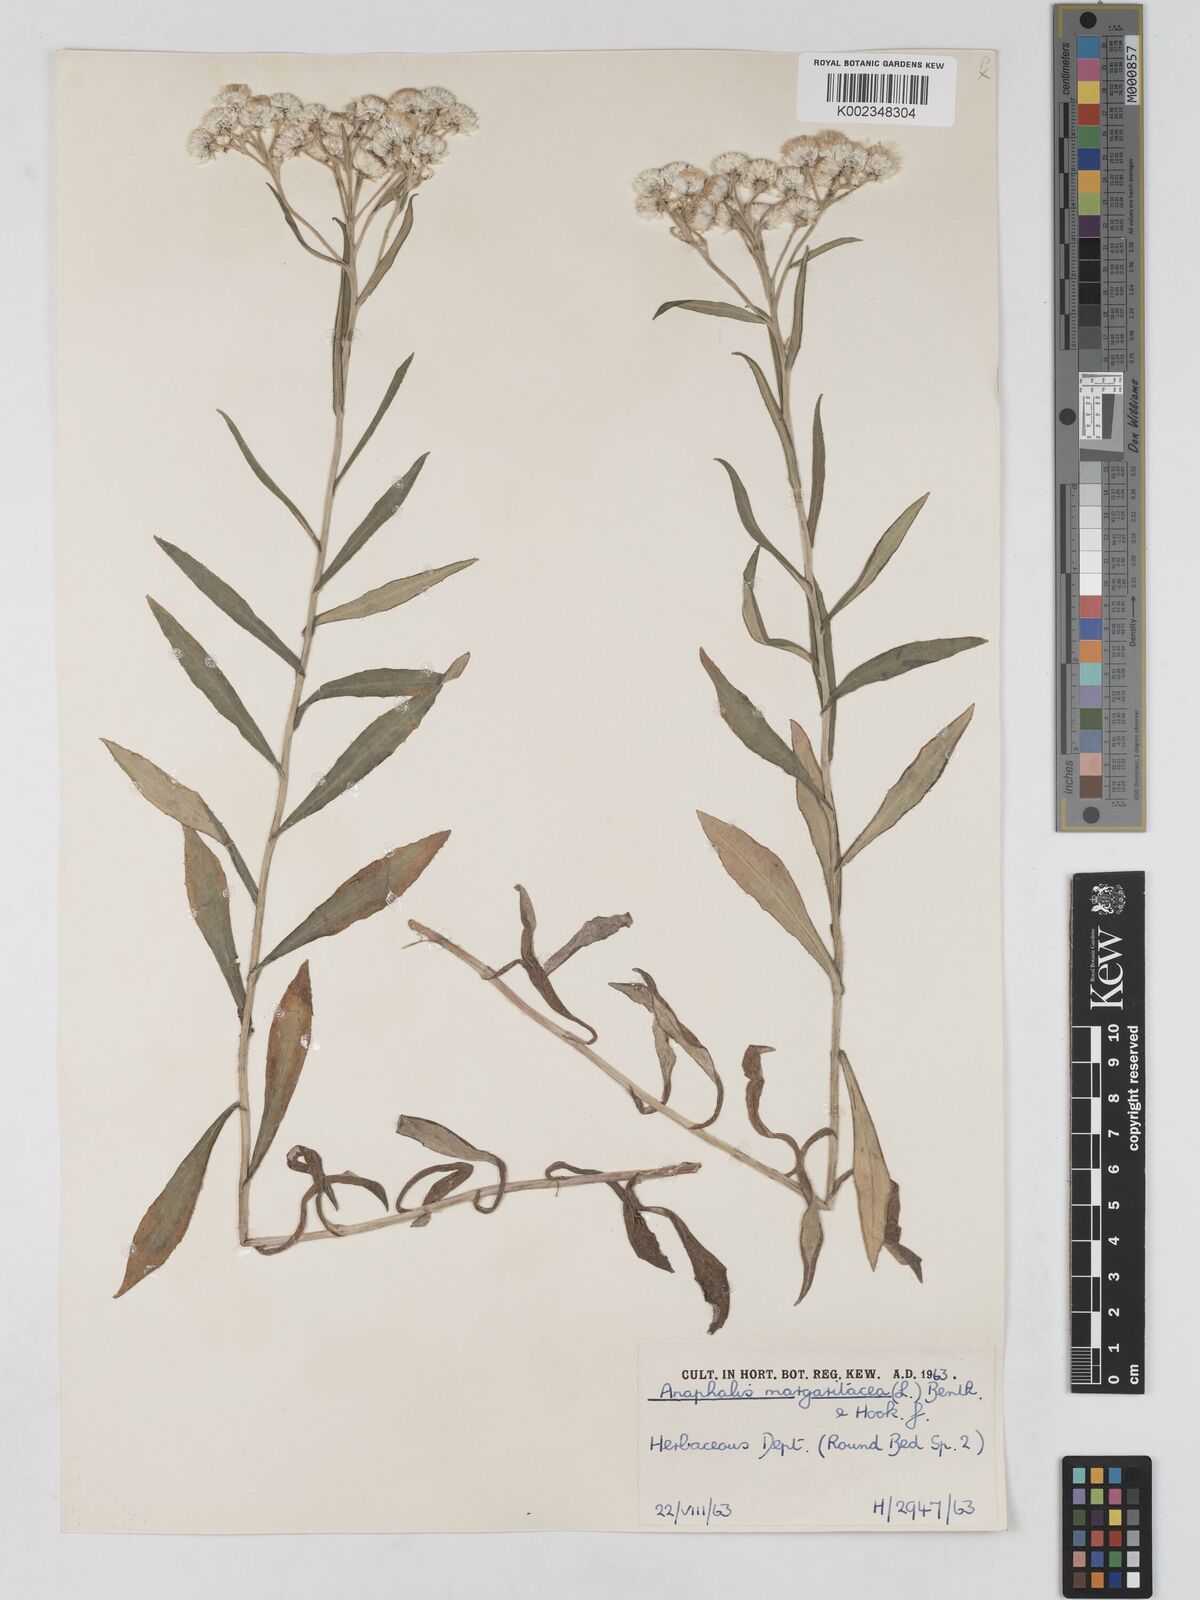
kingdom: Plantae
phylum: Tracheophyta
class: Magnoliopsida
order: Asterales
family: Asteraceae
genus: Anaphalis
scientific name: Anaphalis margaritacea
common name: Pearly everlasting
